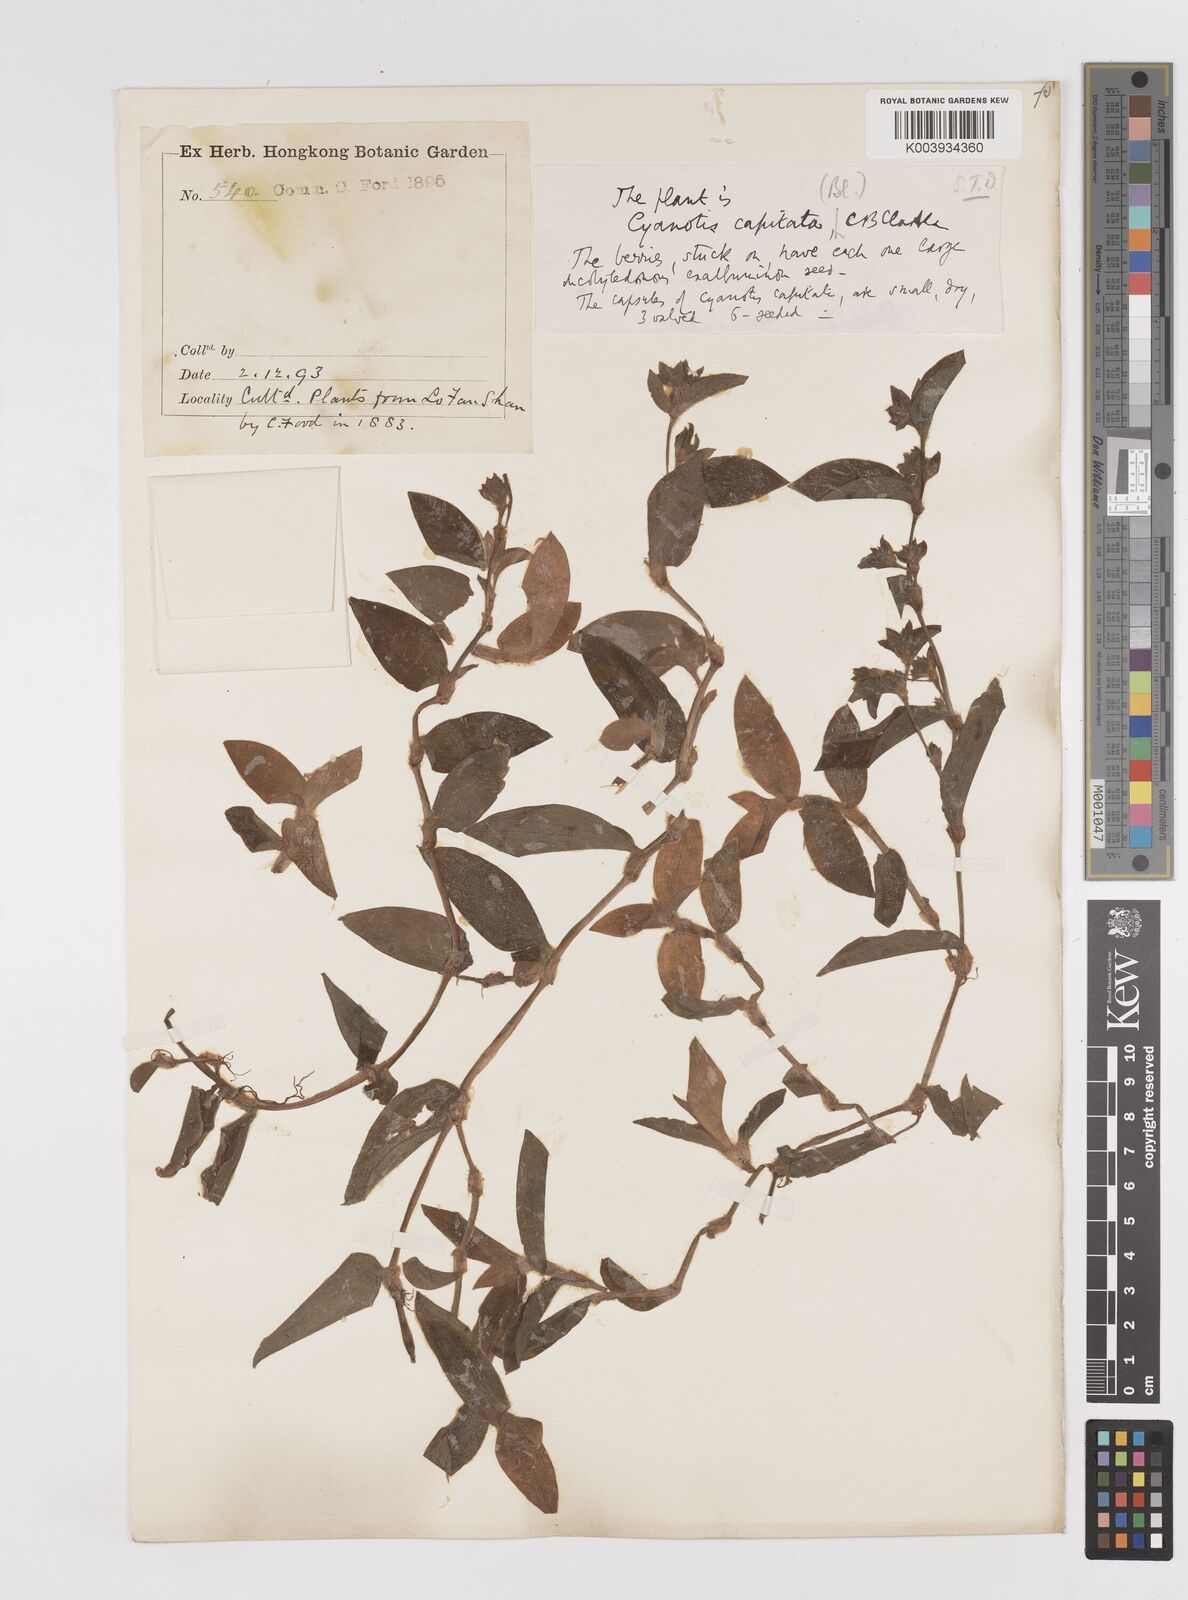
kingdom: Plantae
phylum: Tracheophyta
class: Liliopsida
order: Commelinales
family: Commelinaceae
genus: Cyanotis
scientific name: Cyanotis ciliata
